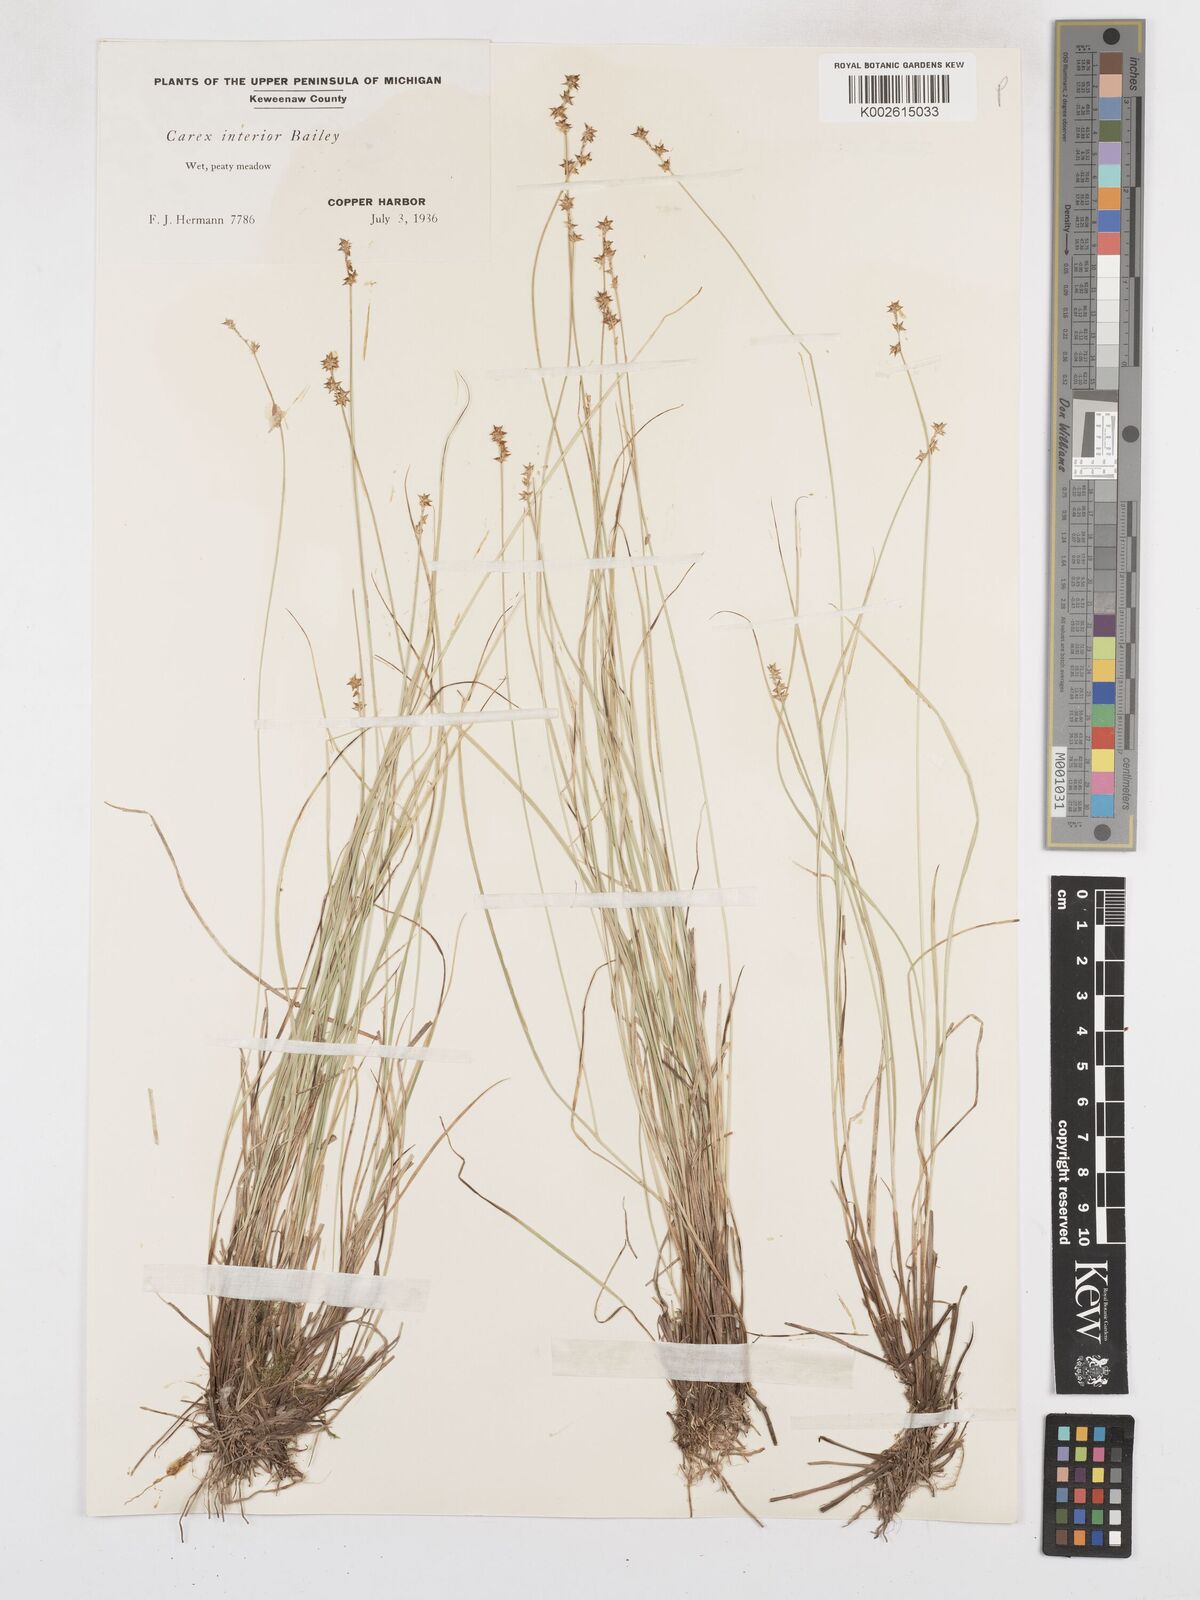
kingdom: Plantae
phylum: Tracheophyta
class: Liliopsida
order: Poales
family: Cyperaceae
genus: Carex
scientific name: Carex interior
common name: Inland sedge
